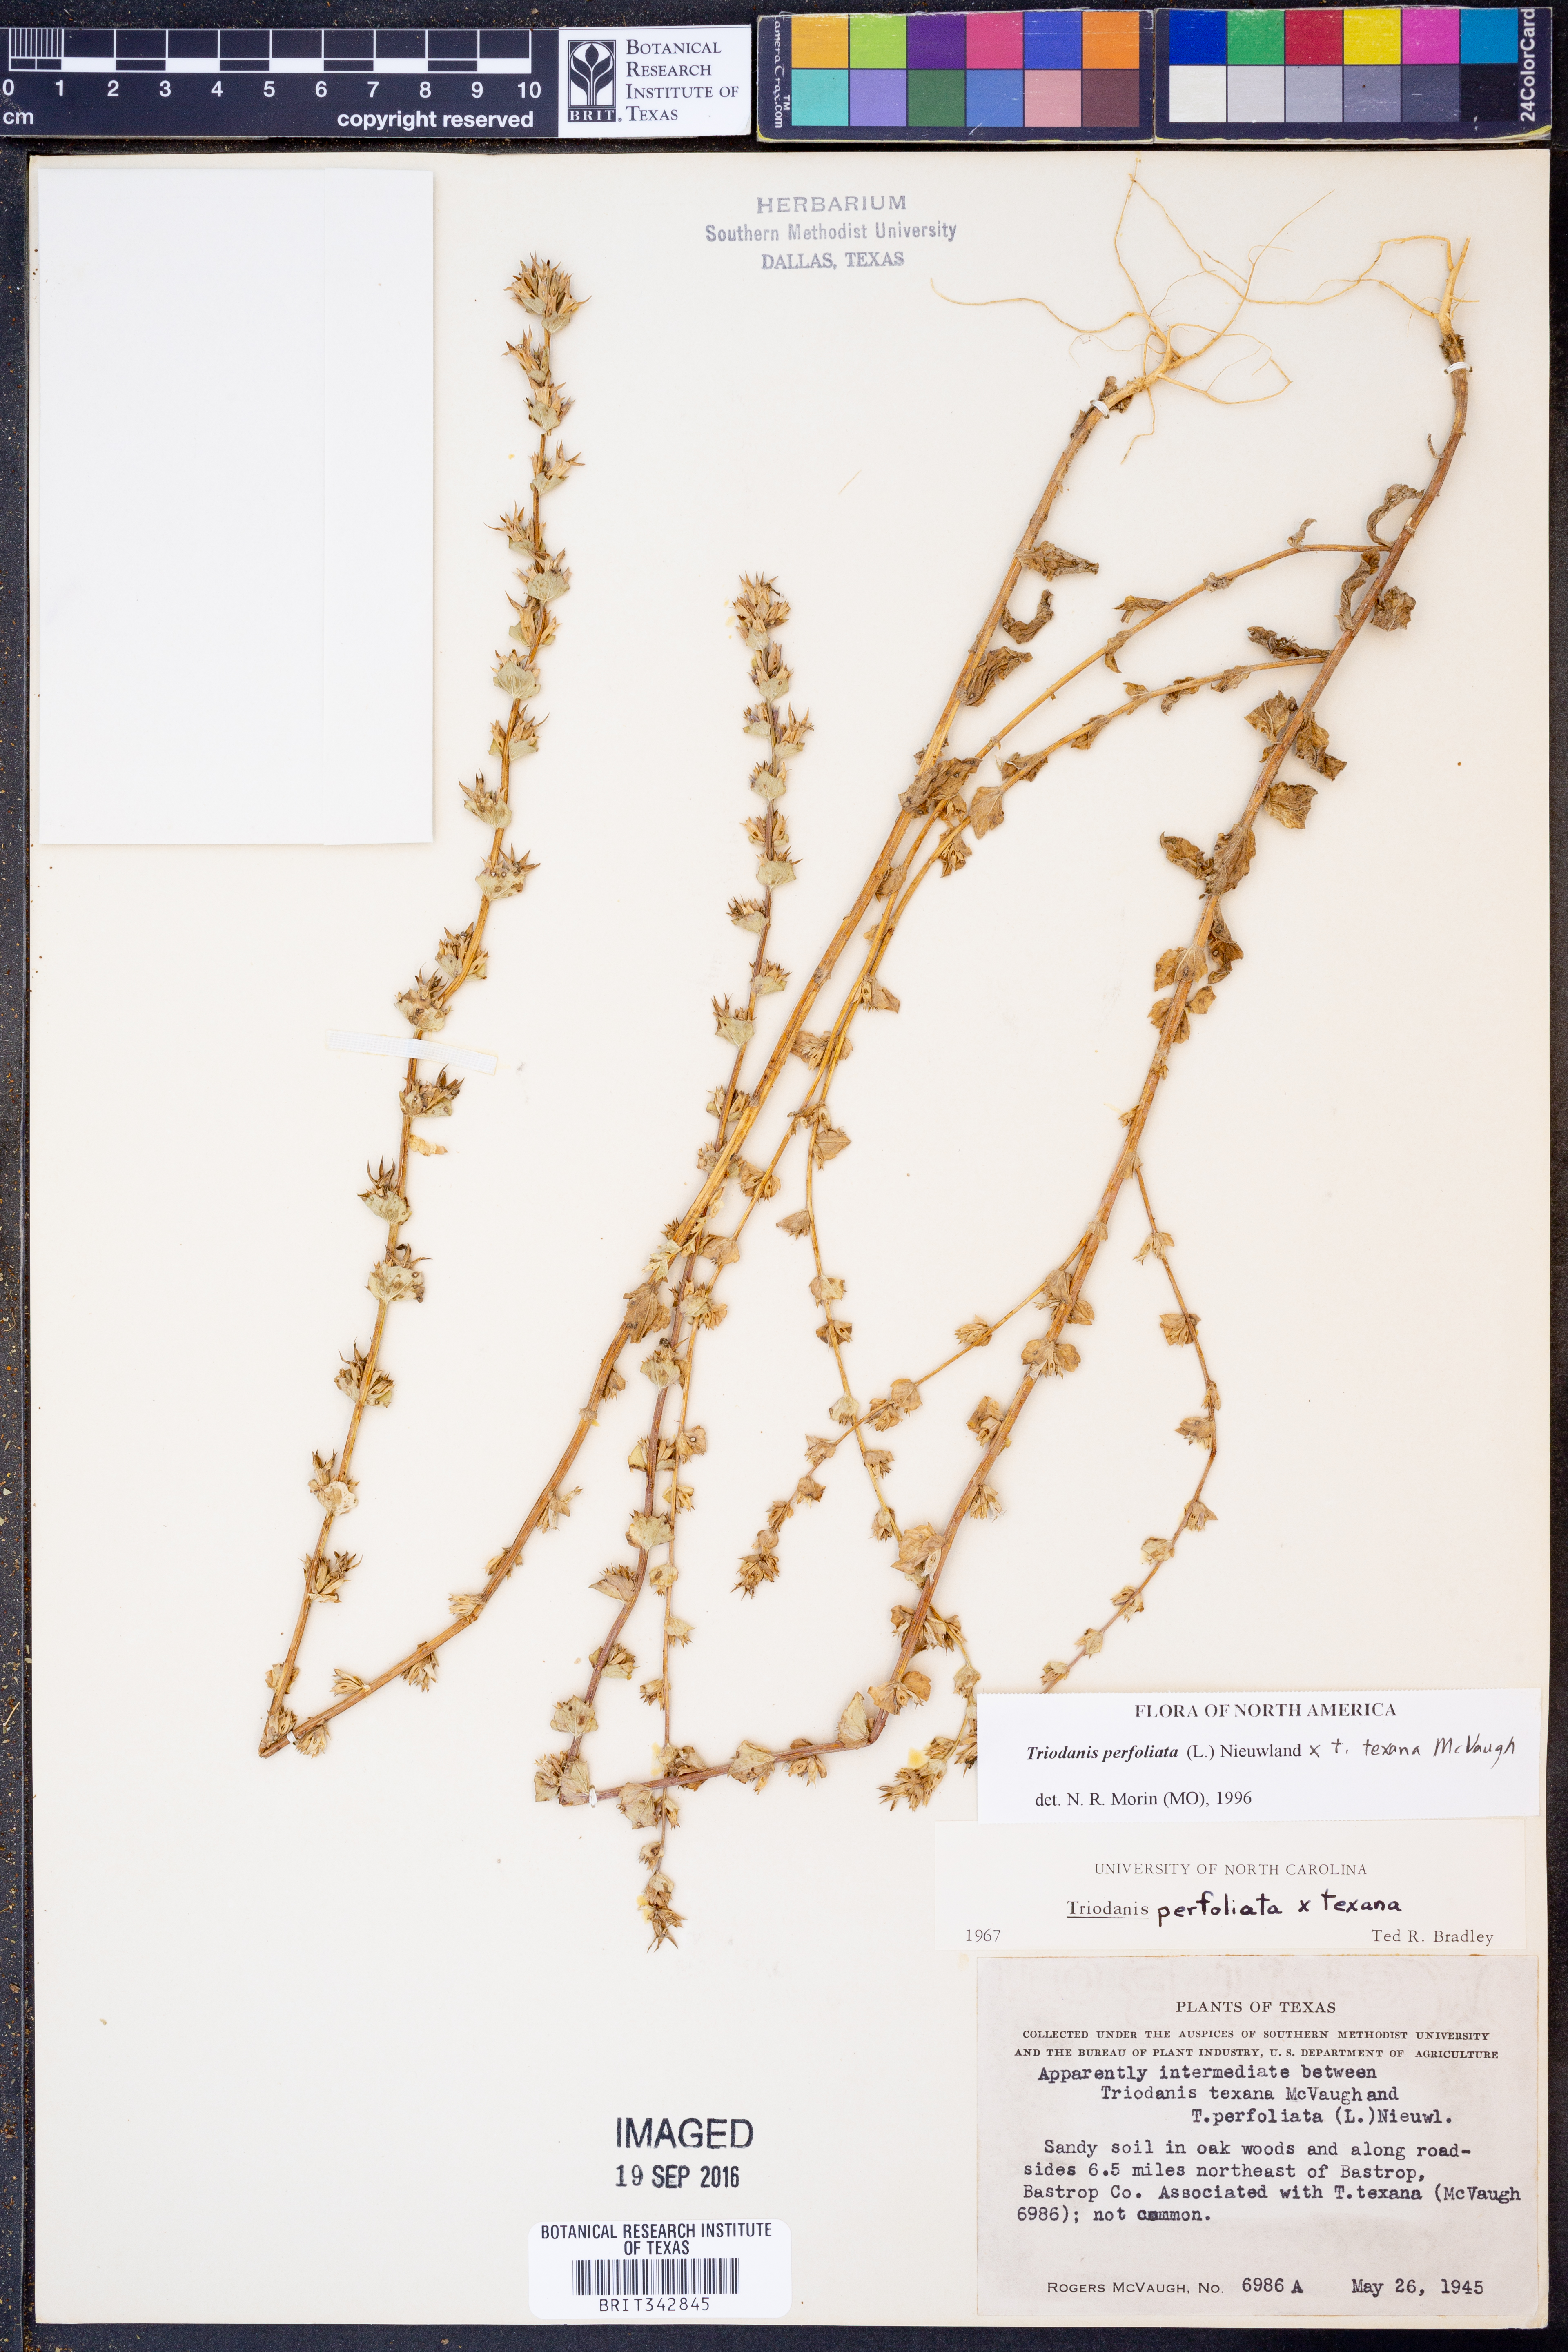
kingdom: Plantae
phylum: Tracheophyta
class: Magnoliopsida
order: Asterales
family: Campanulaceae
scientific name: Campanulaceae
